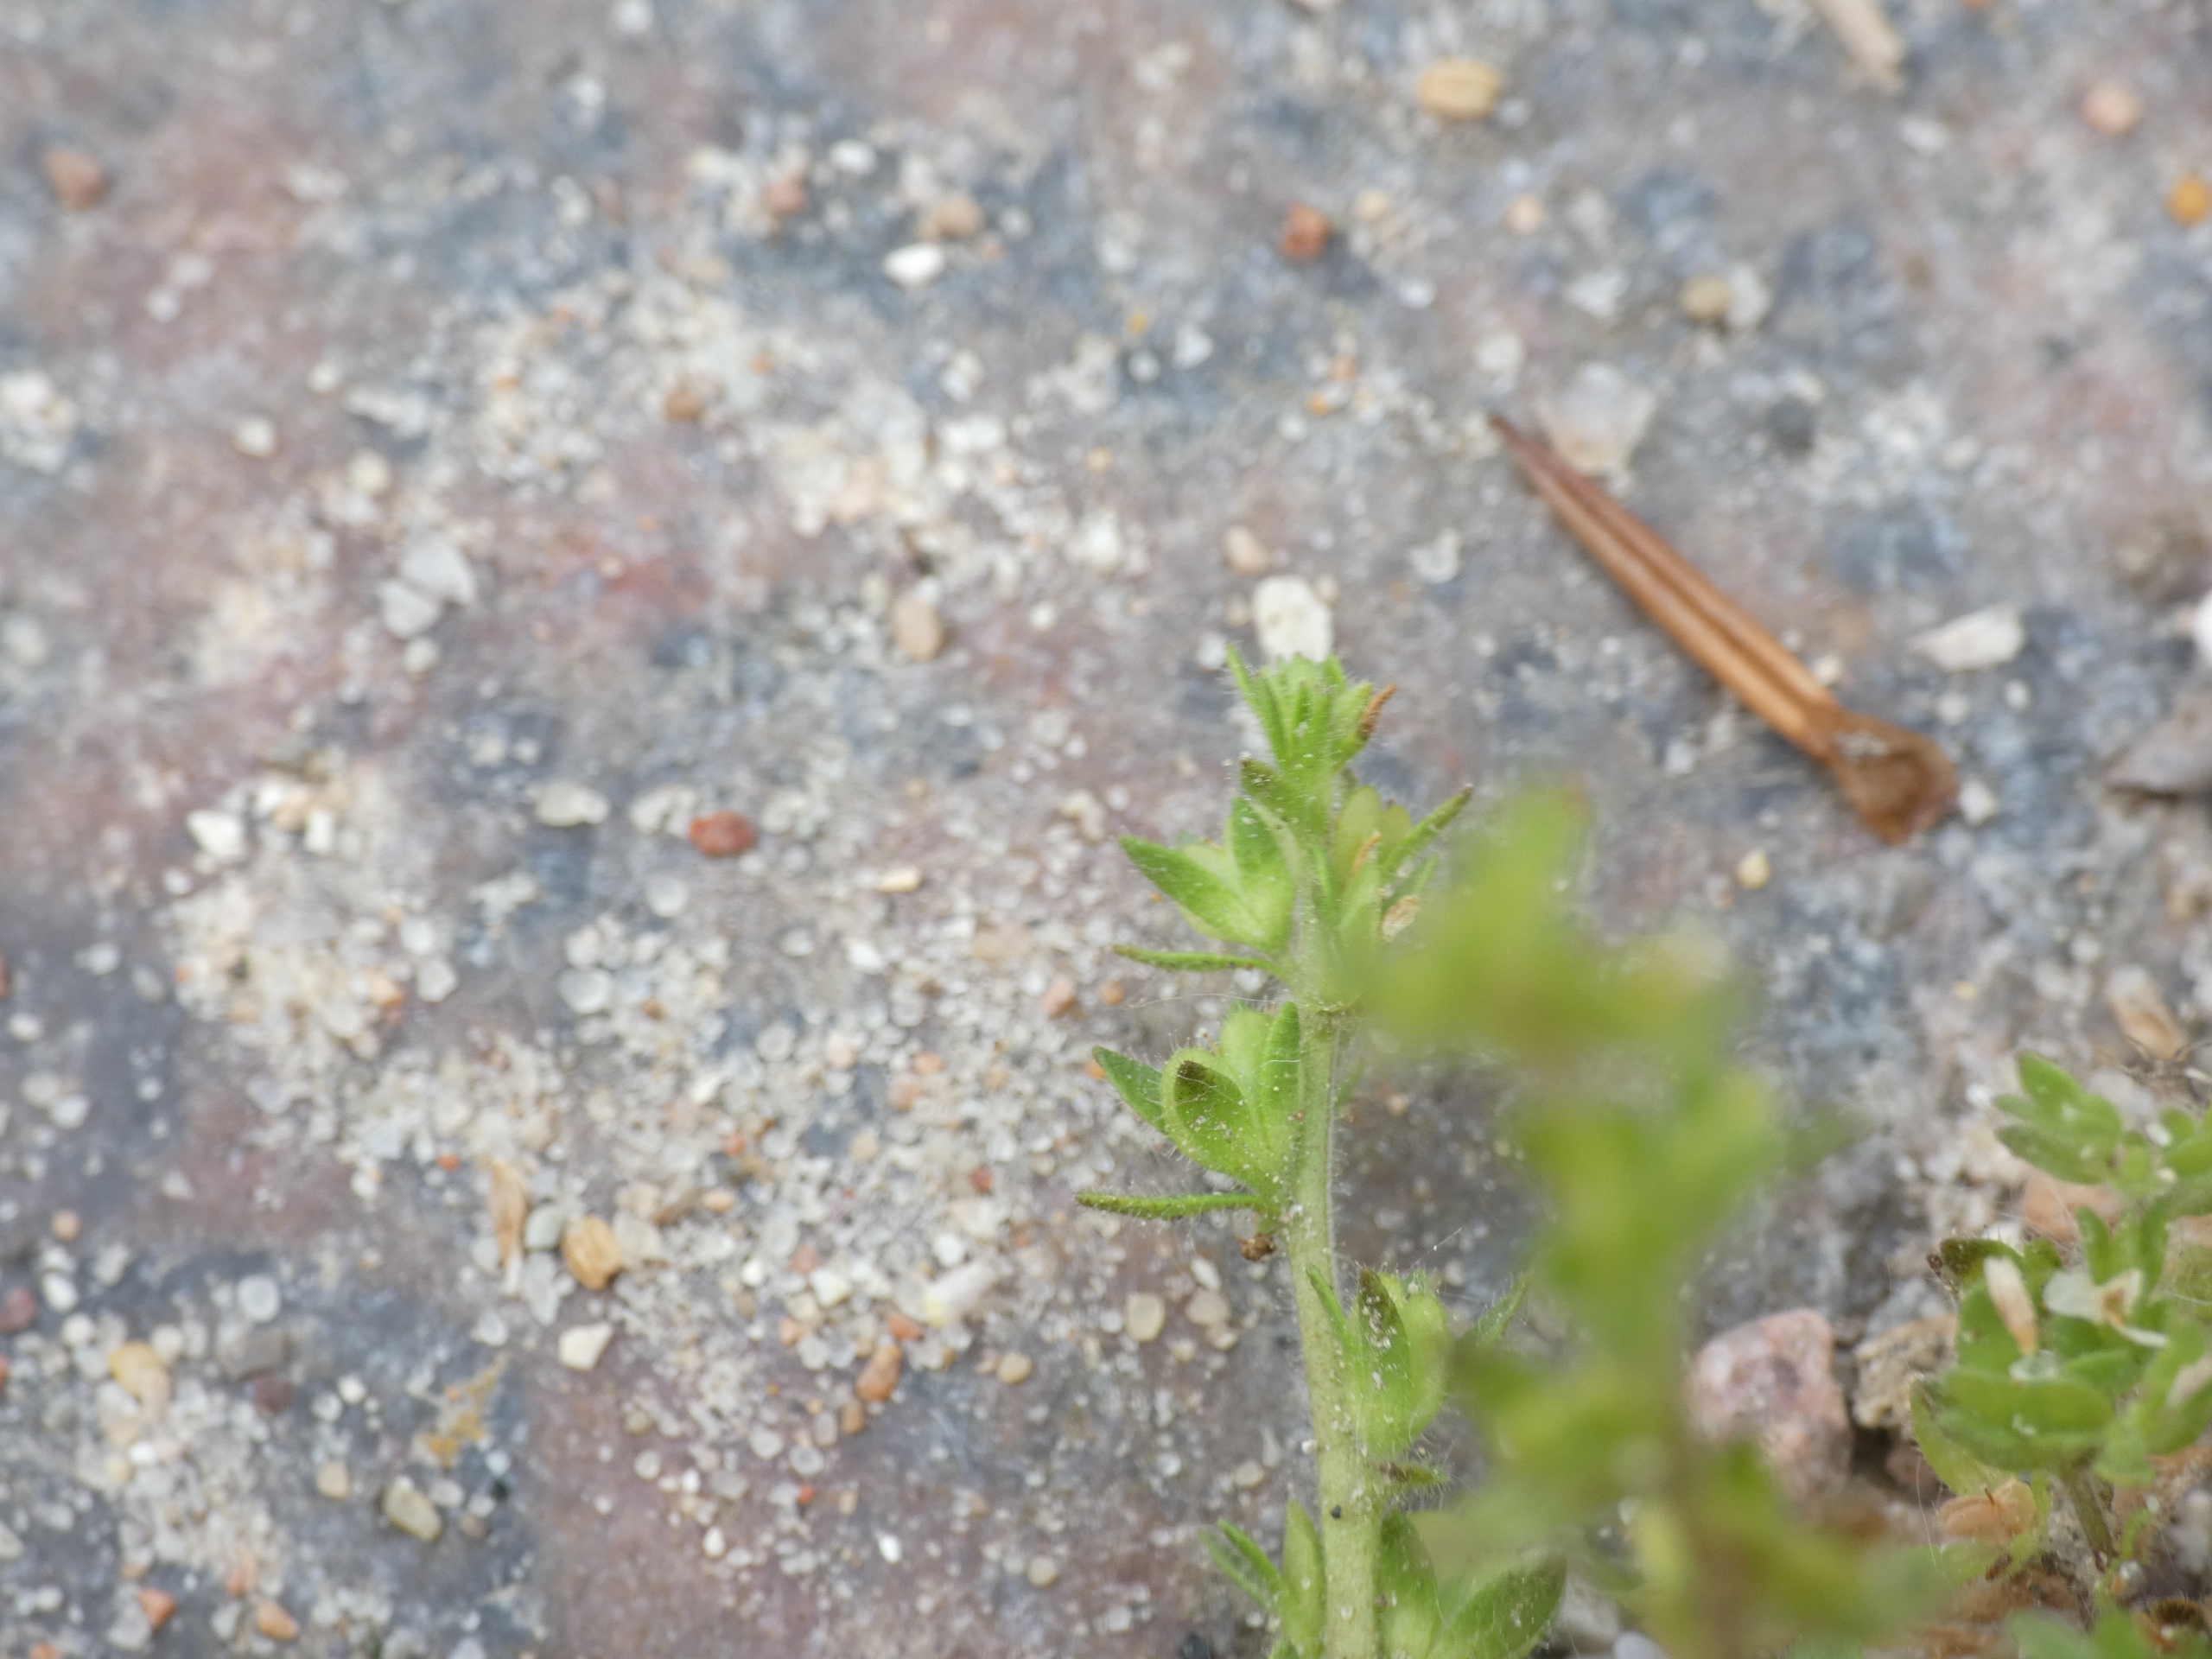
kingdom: Plantae
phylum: Tracheophyta
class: Magnoliopsida
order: Lamiales
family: Plantaginaceae
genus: Veronica
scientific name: Veronica arvensis
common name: Mark-ærenpris
